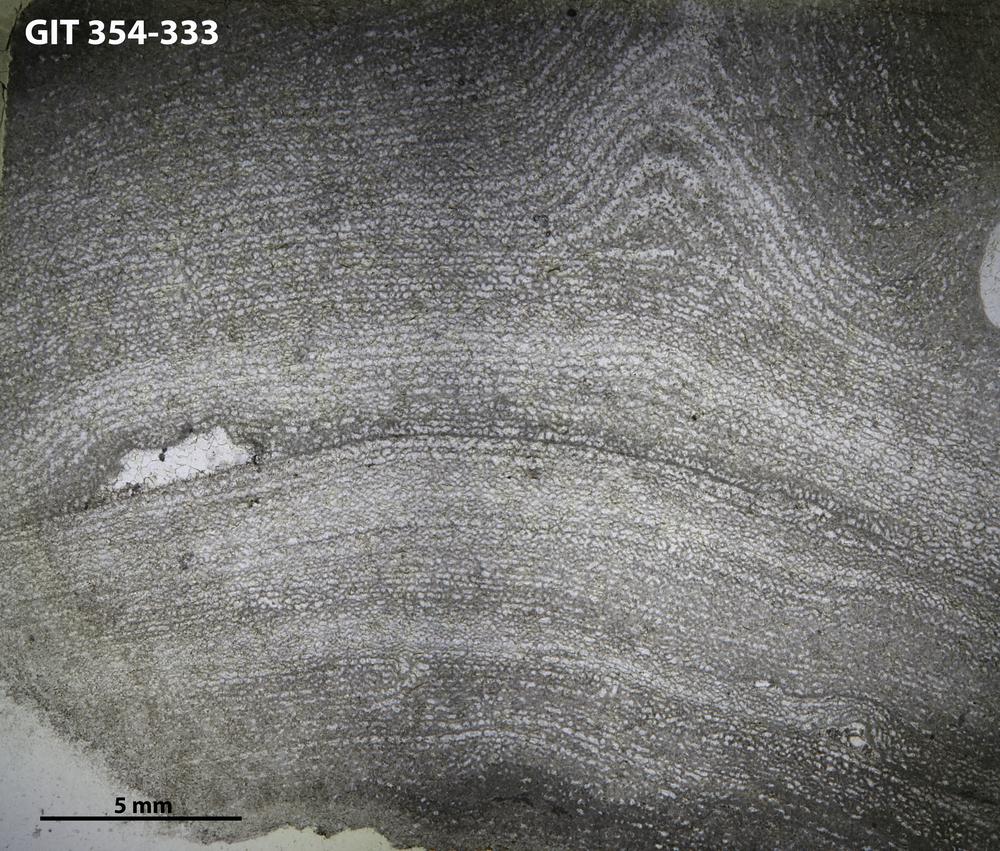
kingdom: Animalia
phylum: Porifera
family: Clathrodictyidae
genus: Clathrodictyon
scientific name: Clathrodictyon boreale
